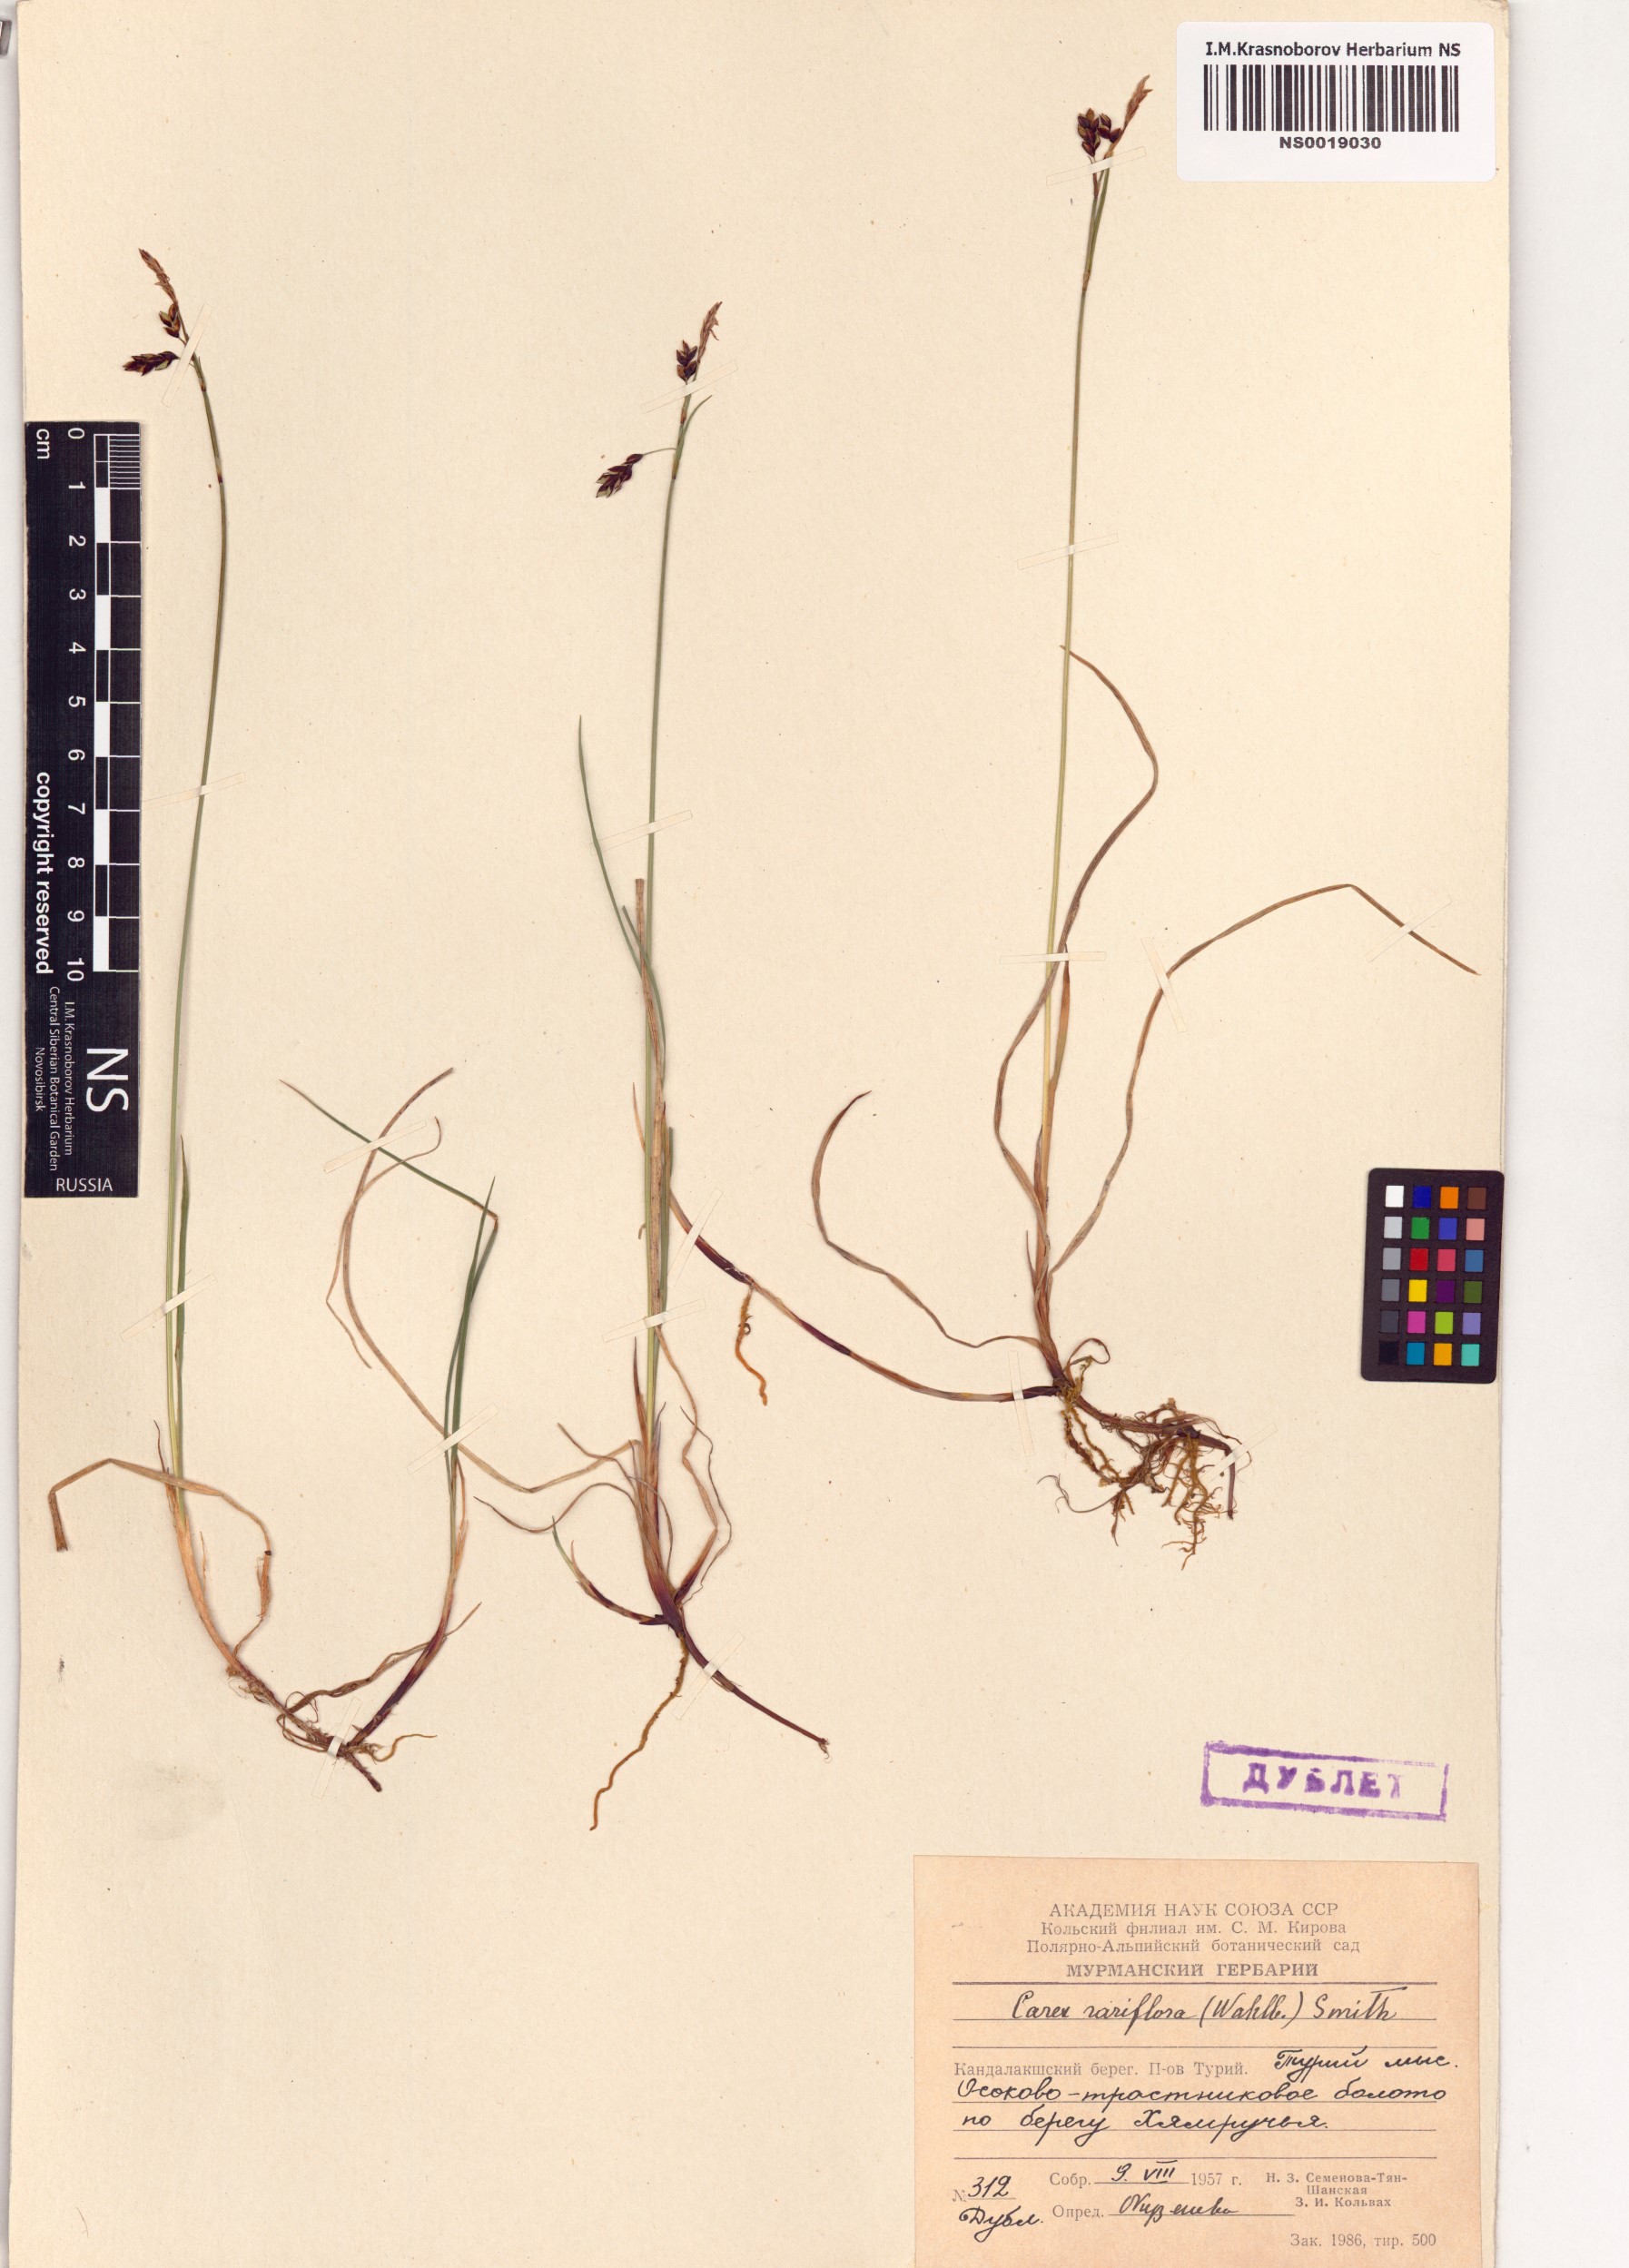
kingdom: Plantae
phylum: Tracheophyta
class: Liliopsida
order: Poales
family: Cyperaceae
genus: Carex
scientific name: Carex rariflora
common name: Loose-flowered alpine sedge
